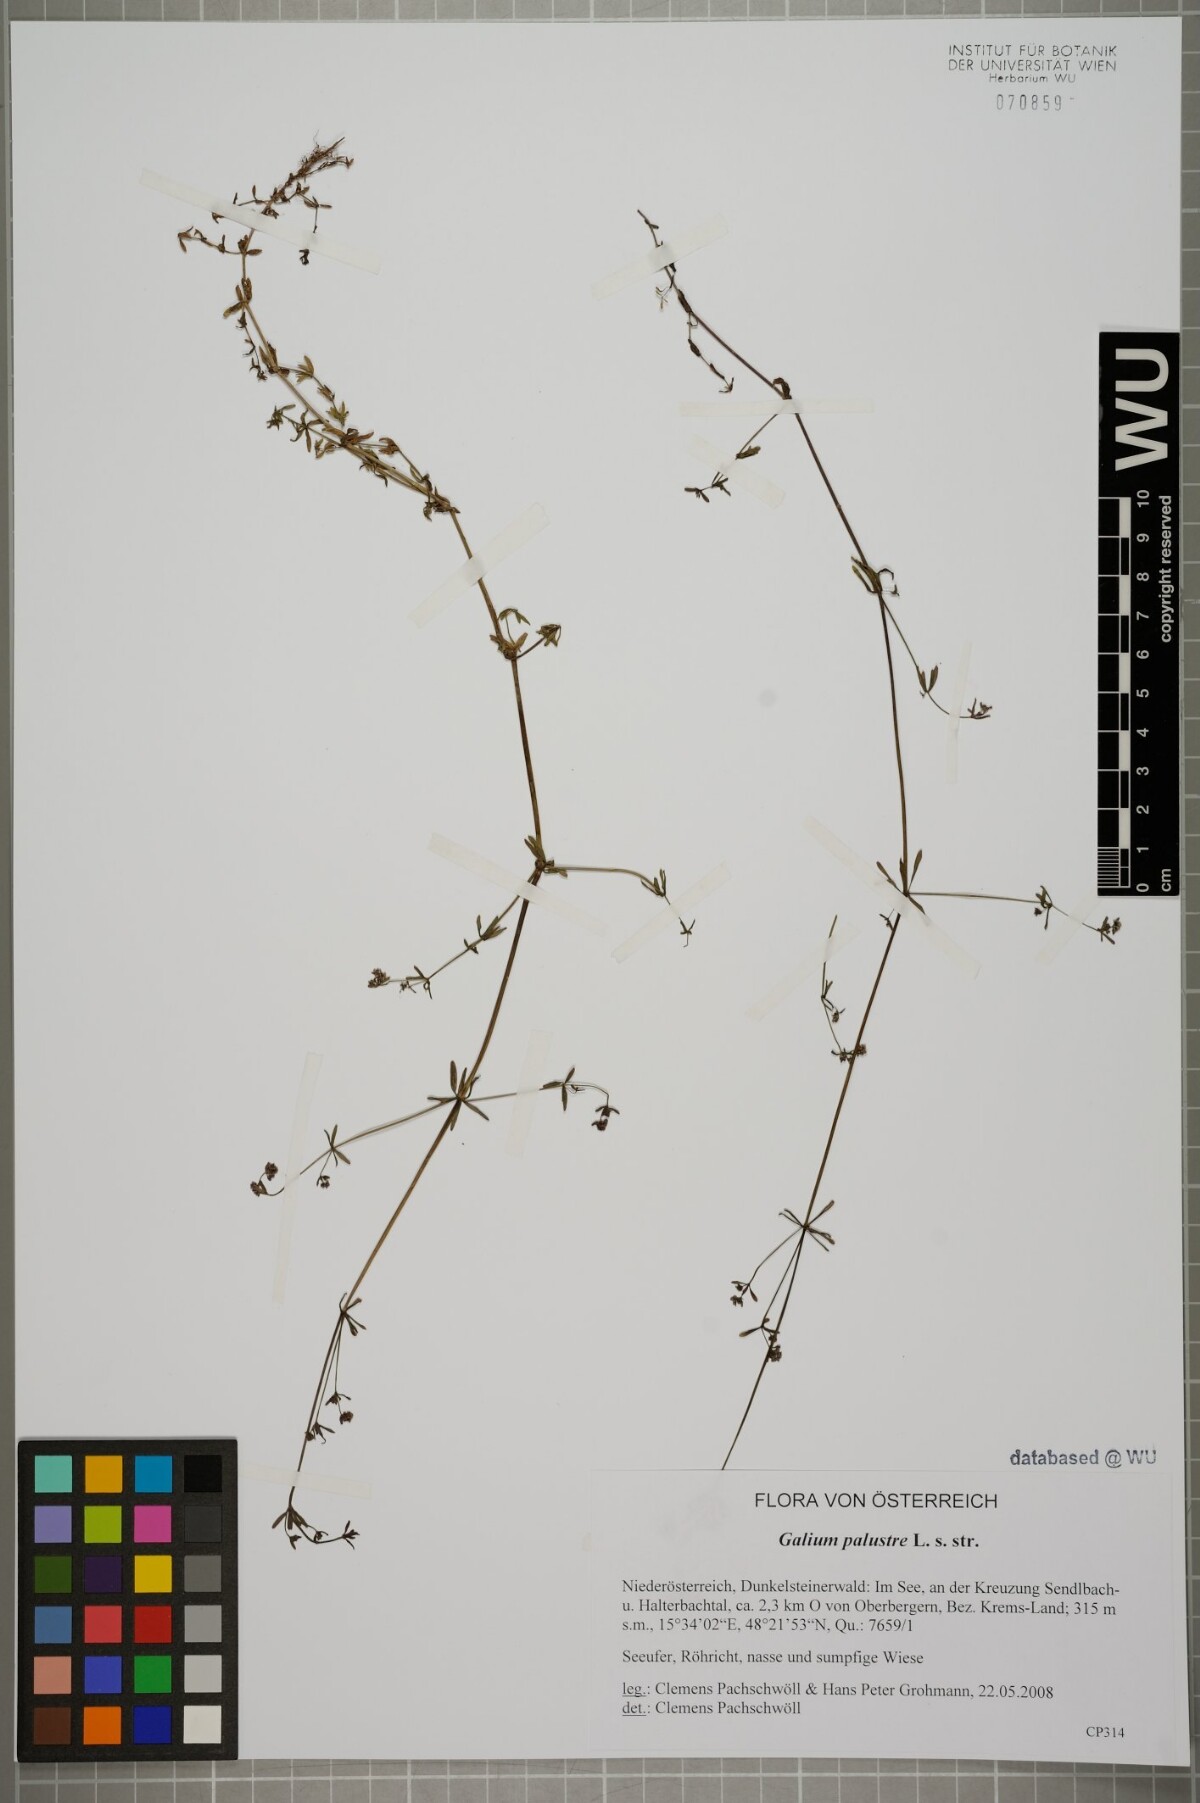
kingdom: Plantae
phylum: Tracheophyta
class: Magnoliopsida
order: Gentianales
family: Rubiaceae
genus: Galium
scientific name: Galium palustre
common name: Common marsh-bedstraw
